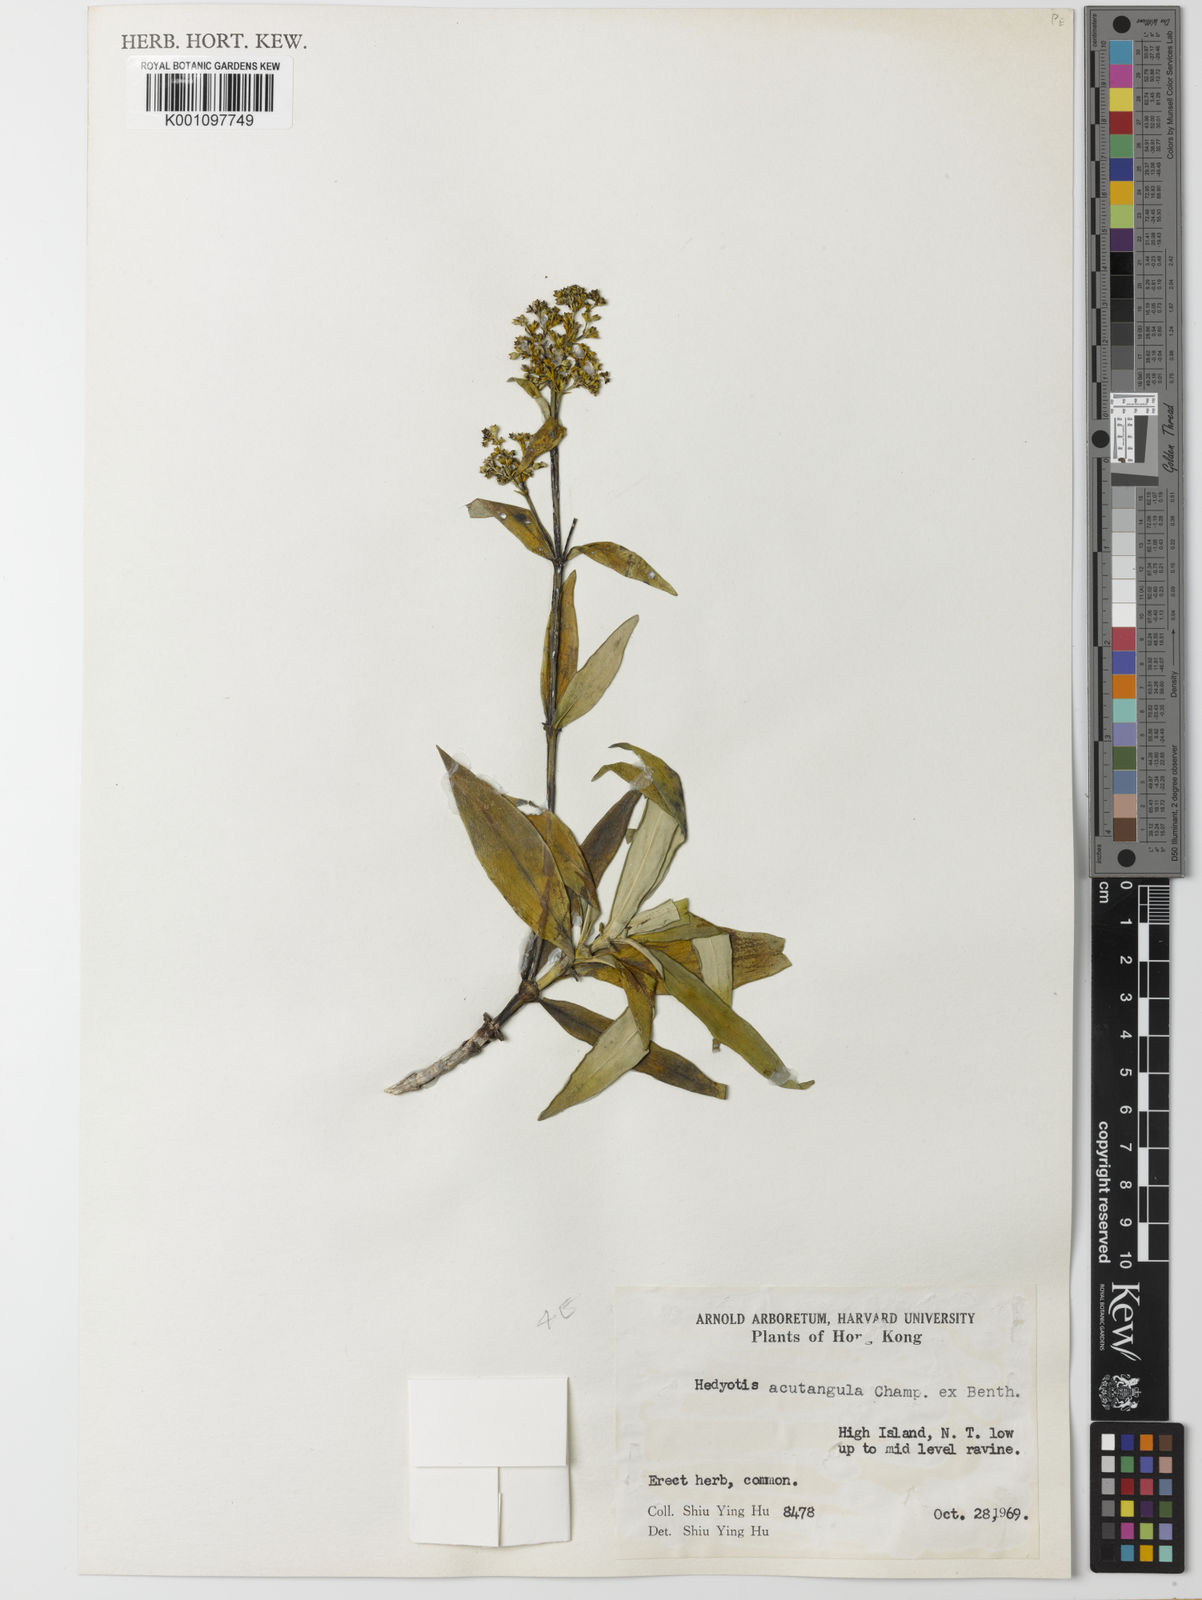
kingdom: Plantae
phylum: Tracheophyta
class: Magnoliopsida
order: Gentianales
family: Rubiaceae
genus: Hedyotis
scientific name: Hedyotis acutangula
